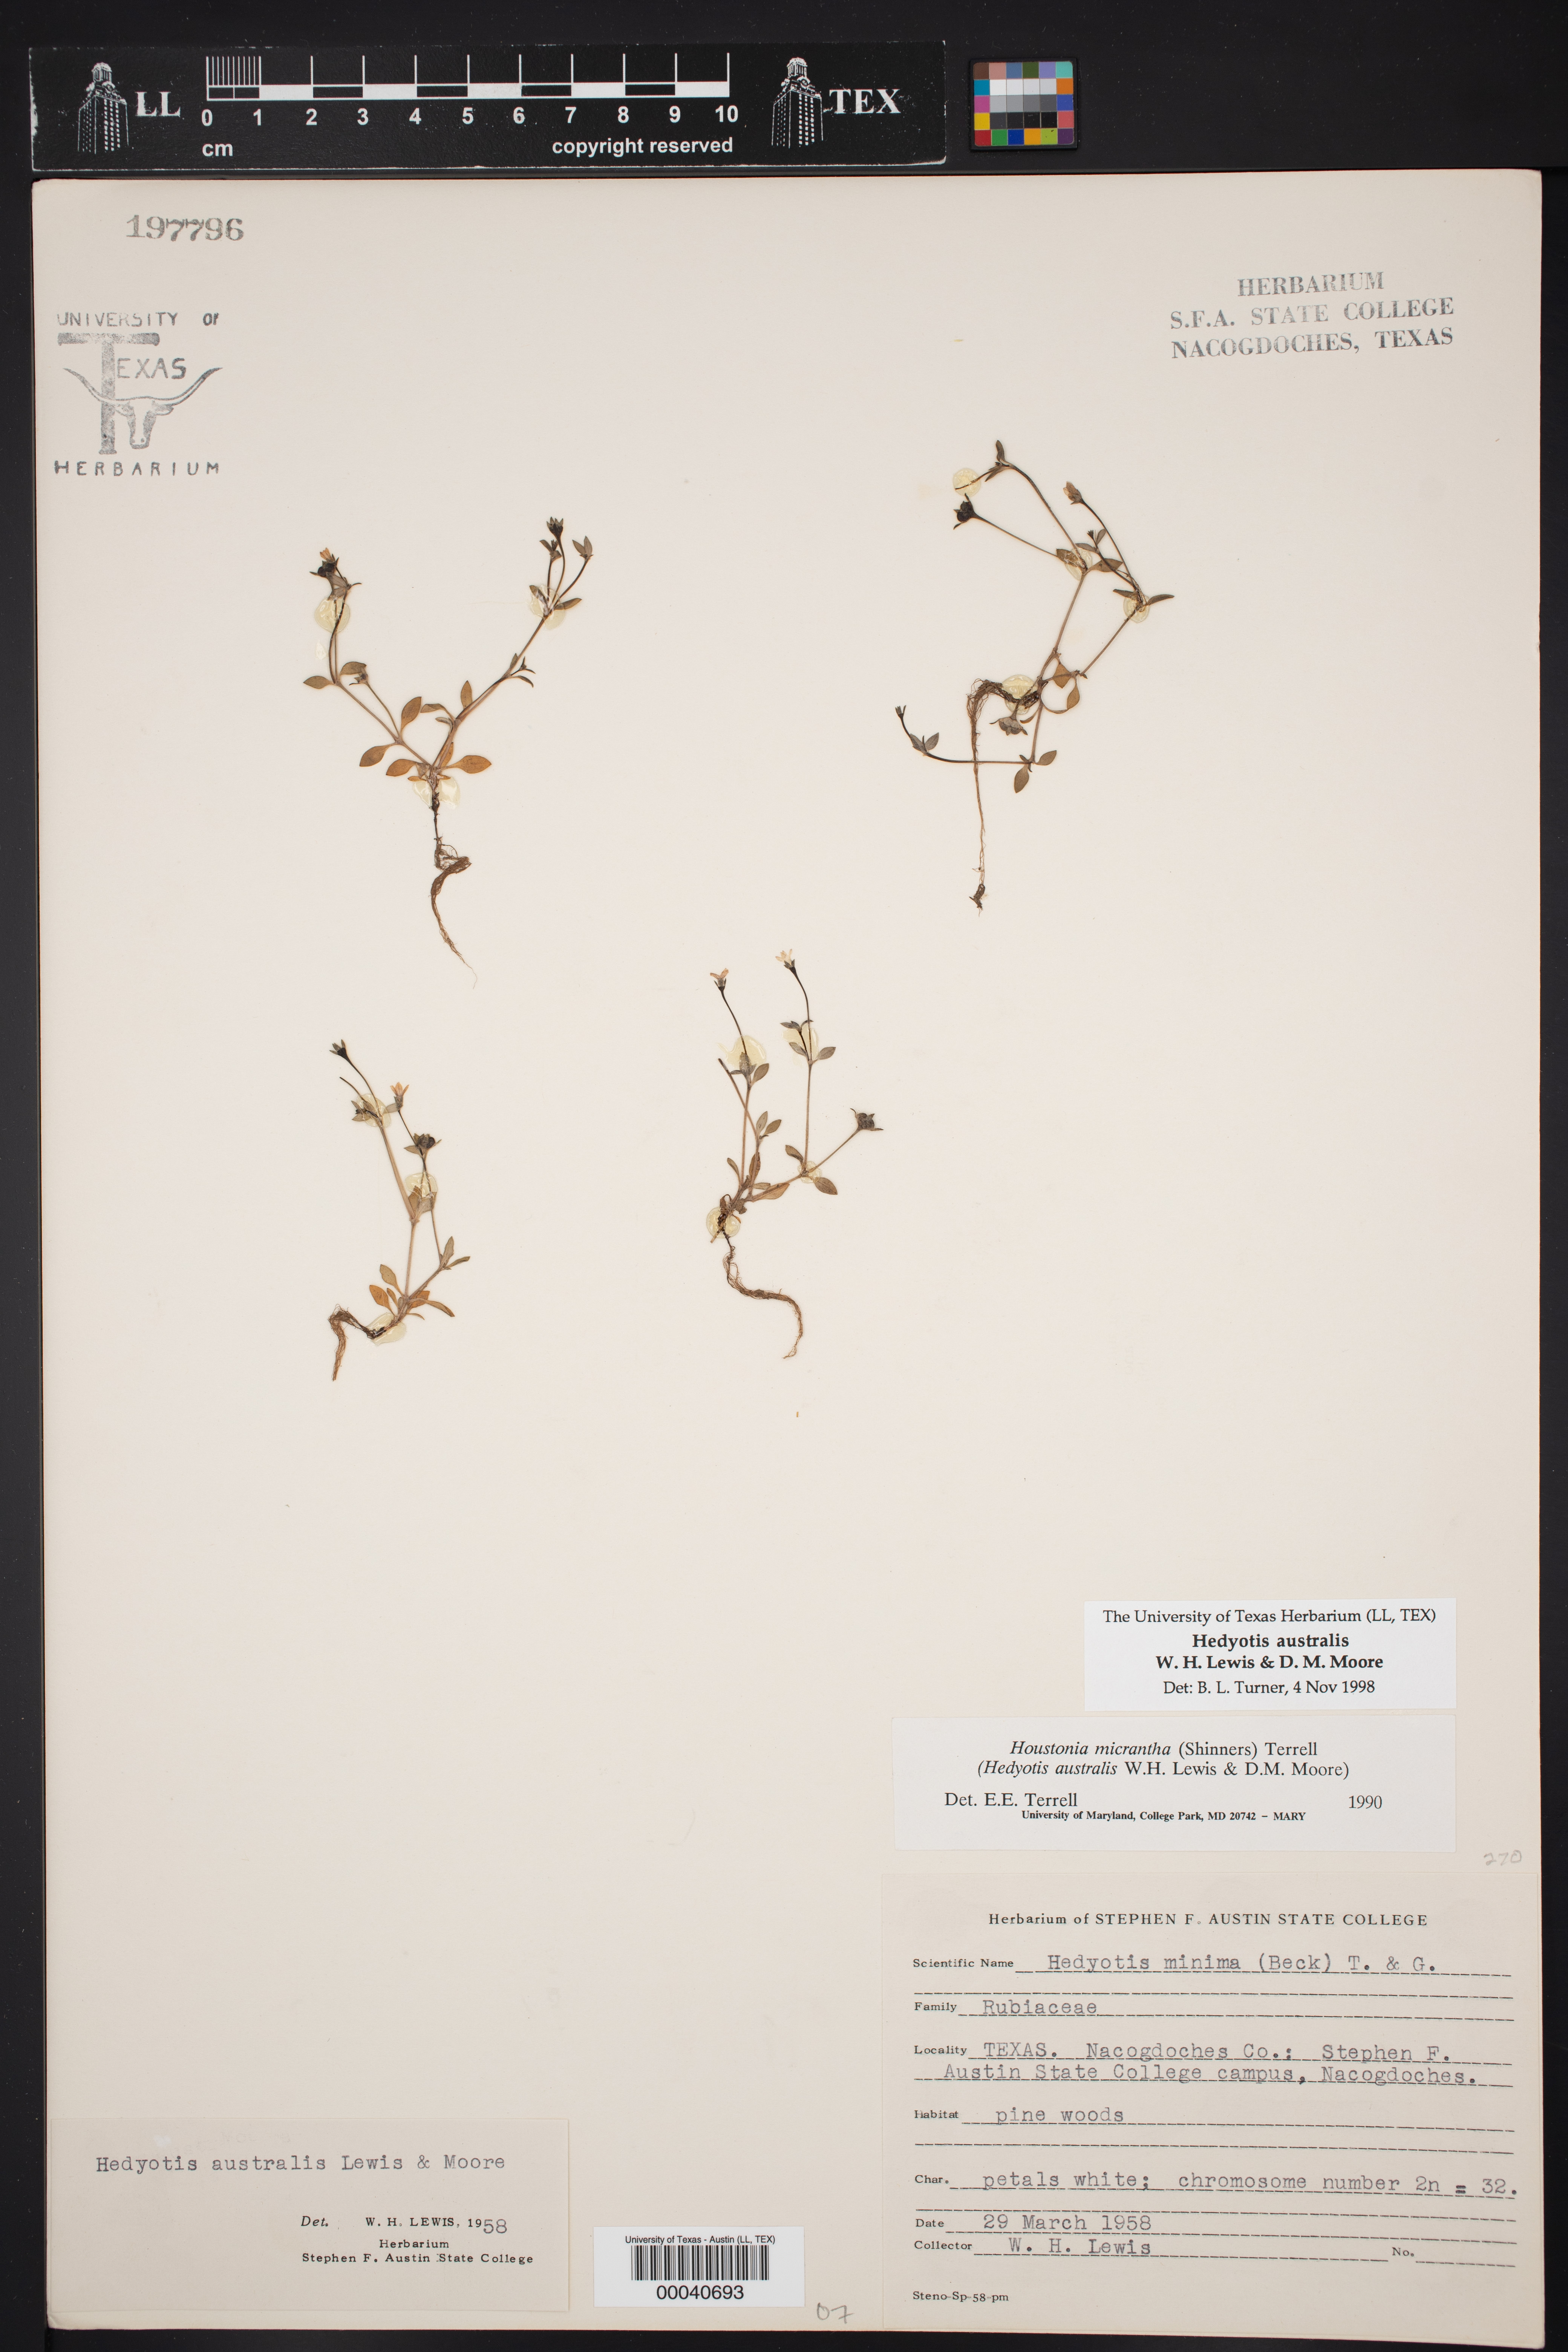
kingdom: Plantae
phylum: Tracheophyta
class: Magnoliopsida
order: Gentianales
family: Rubiaceae
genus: Houstonia
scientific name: Houstonia micrantha
